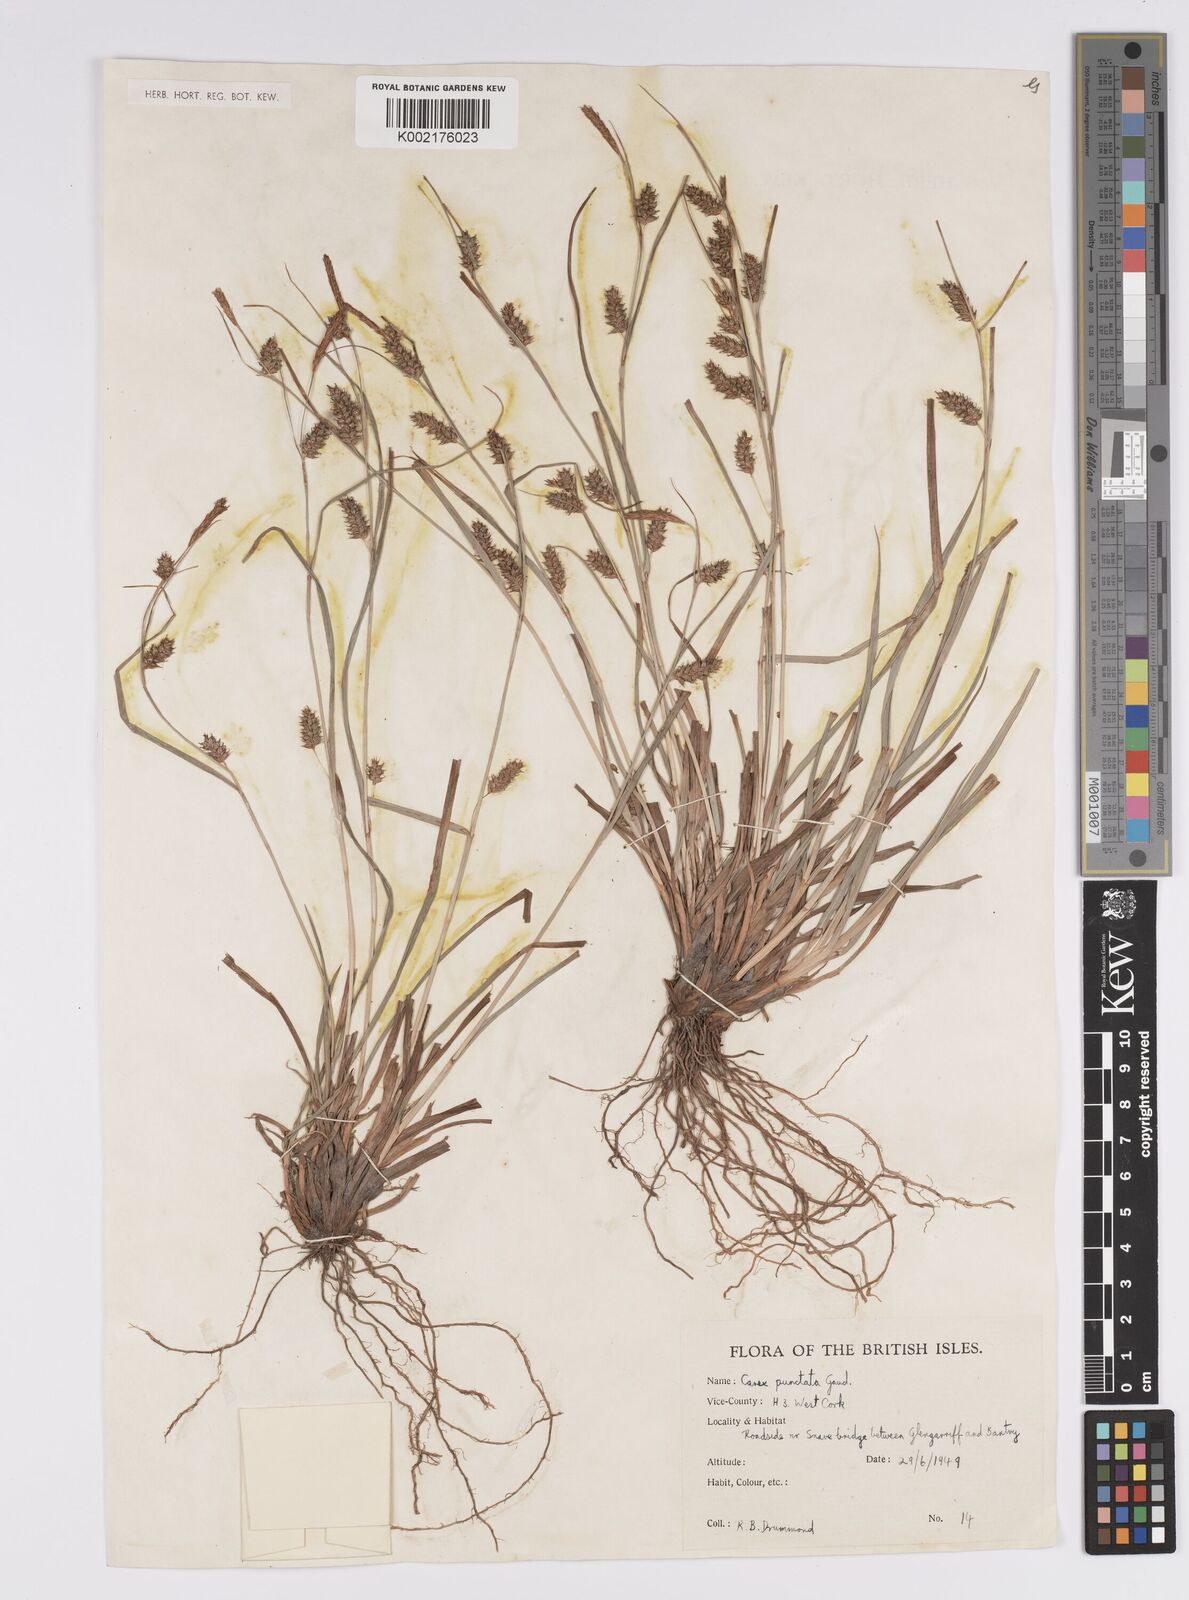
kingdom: Plantae
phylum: Tracheophyta
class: Liliopsida
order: Poales
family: Cyperaceae
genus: Carex
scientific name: Carex punctata
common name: Dotted sedge
